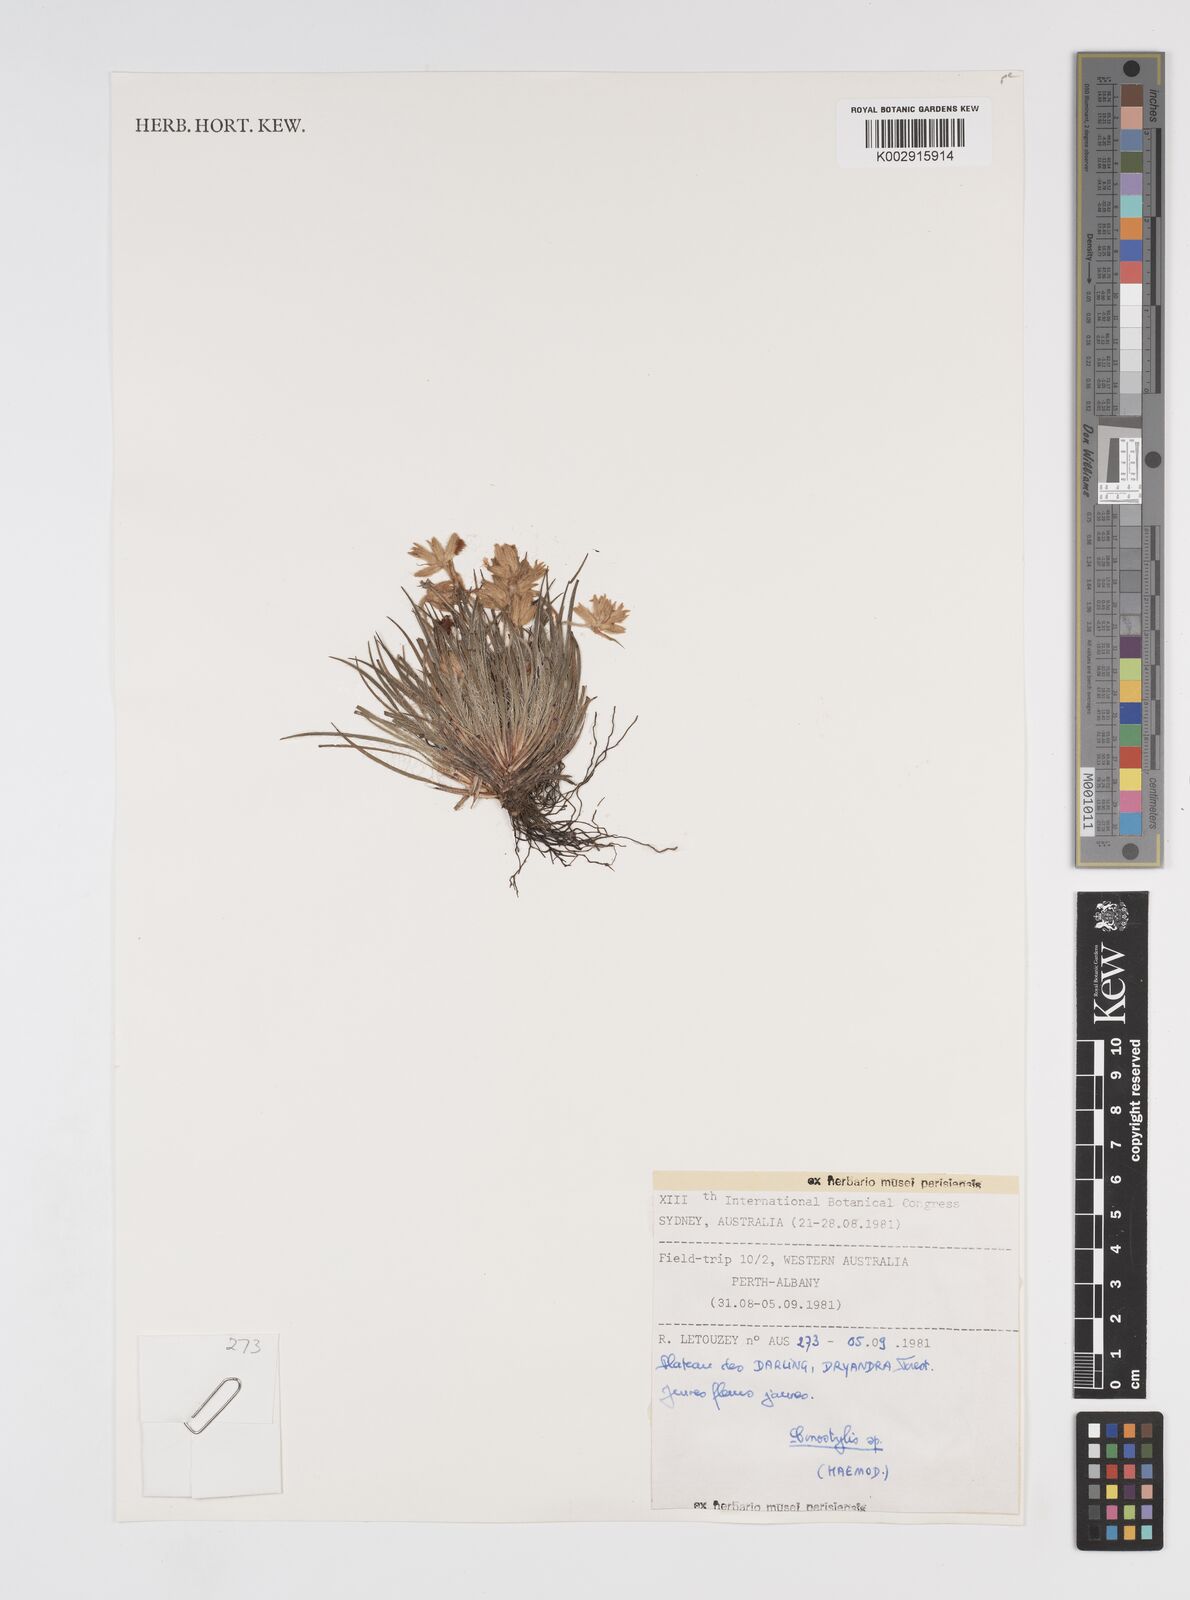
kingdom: Plantae
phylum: Tracheophyta
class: Liliopsida
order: Commelinales
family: Haemodoraceae
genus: Conostylis
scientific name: Conostylis
